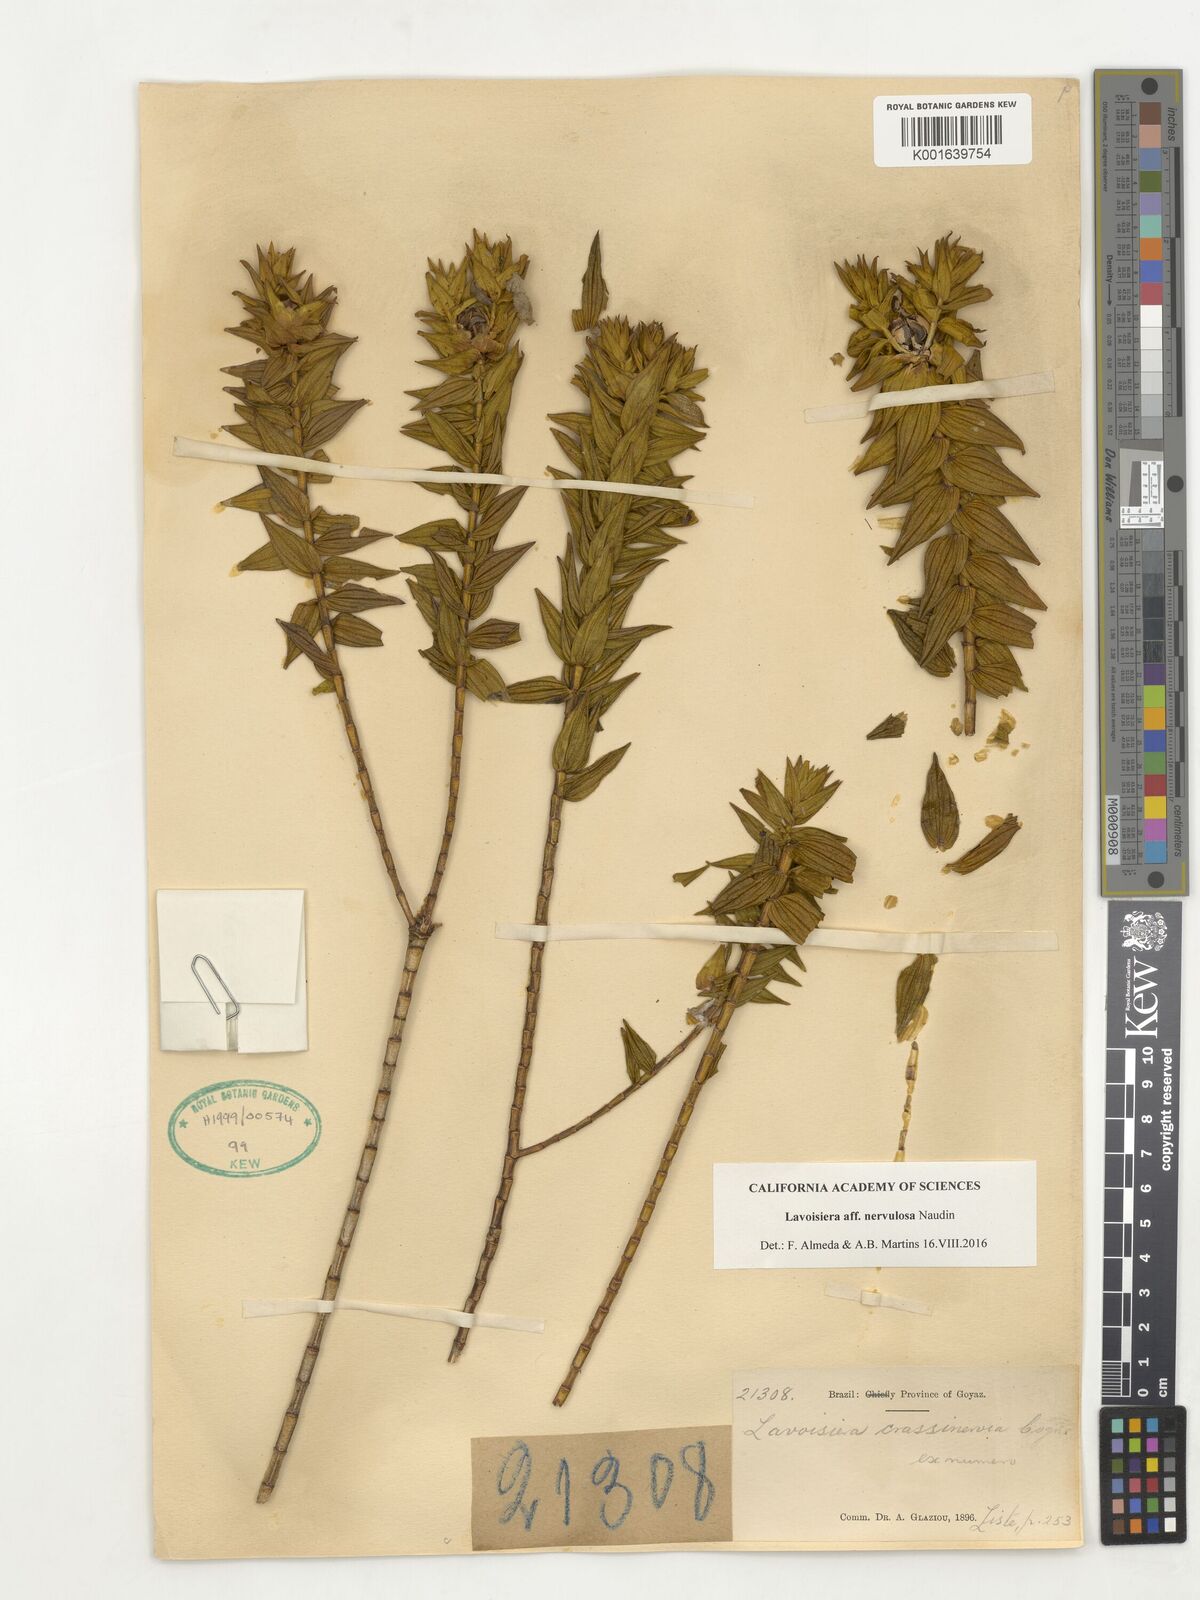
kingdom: Plantae
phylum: Tracheophyta
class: Magnoliopsida
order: Myrtales
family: Melastomataceae
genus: Microlicia
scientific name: Microlicia nervulosa
